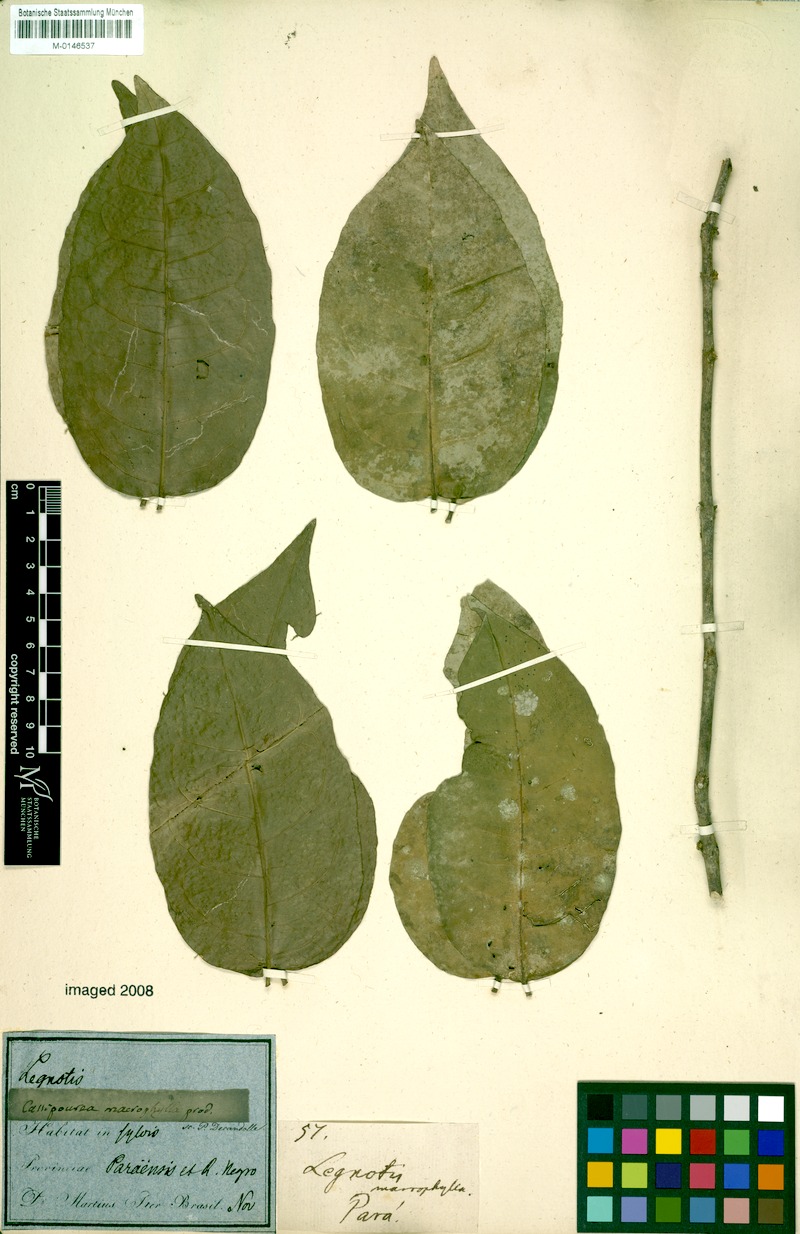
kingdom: Plantae
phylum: Tracheophyta
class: Magnoliopsida
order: Malpighiales
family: Rhizophoraceae
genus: Cassipourea
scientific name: Cassipourea guianensis
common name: Bastard waterwood
